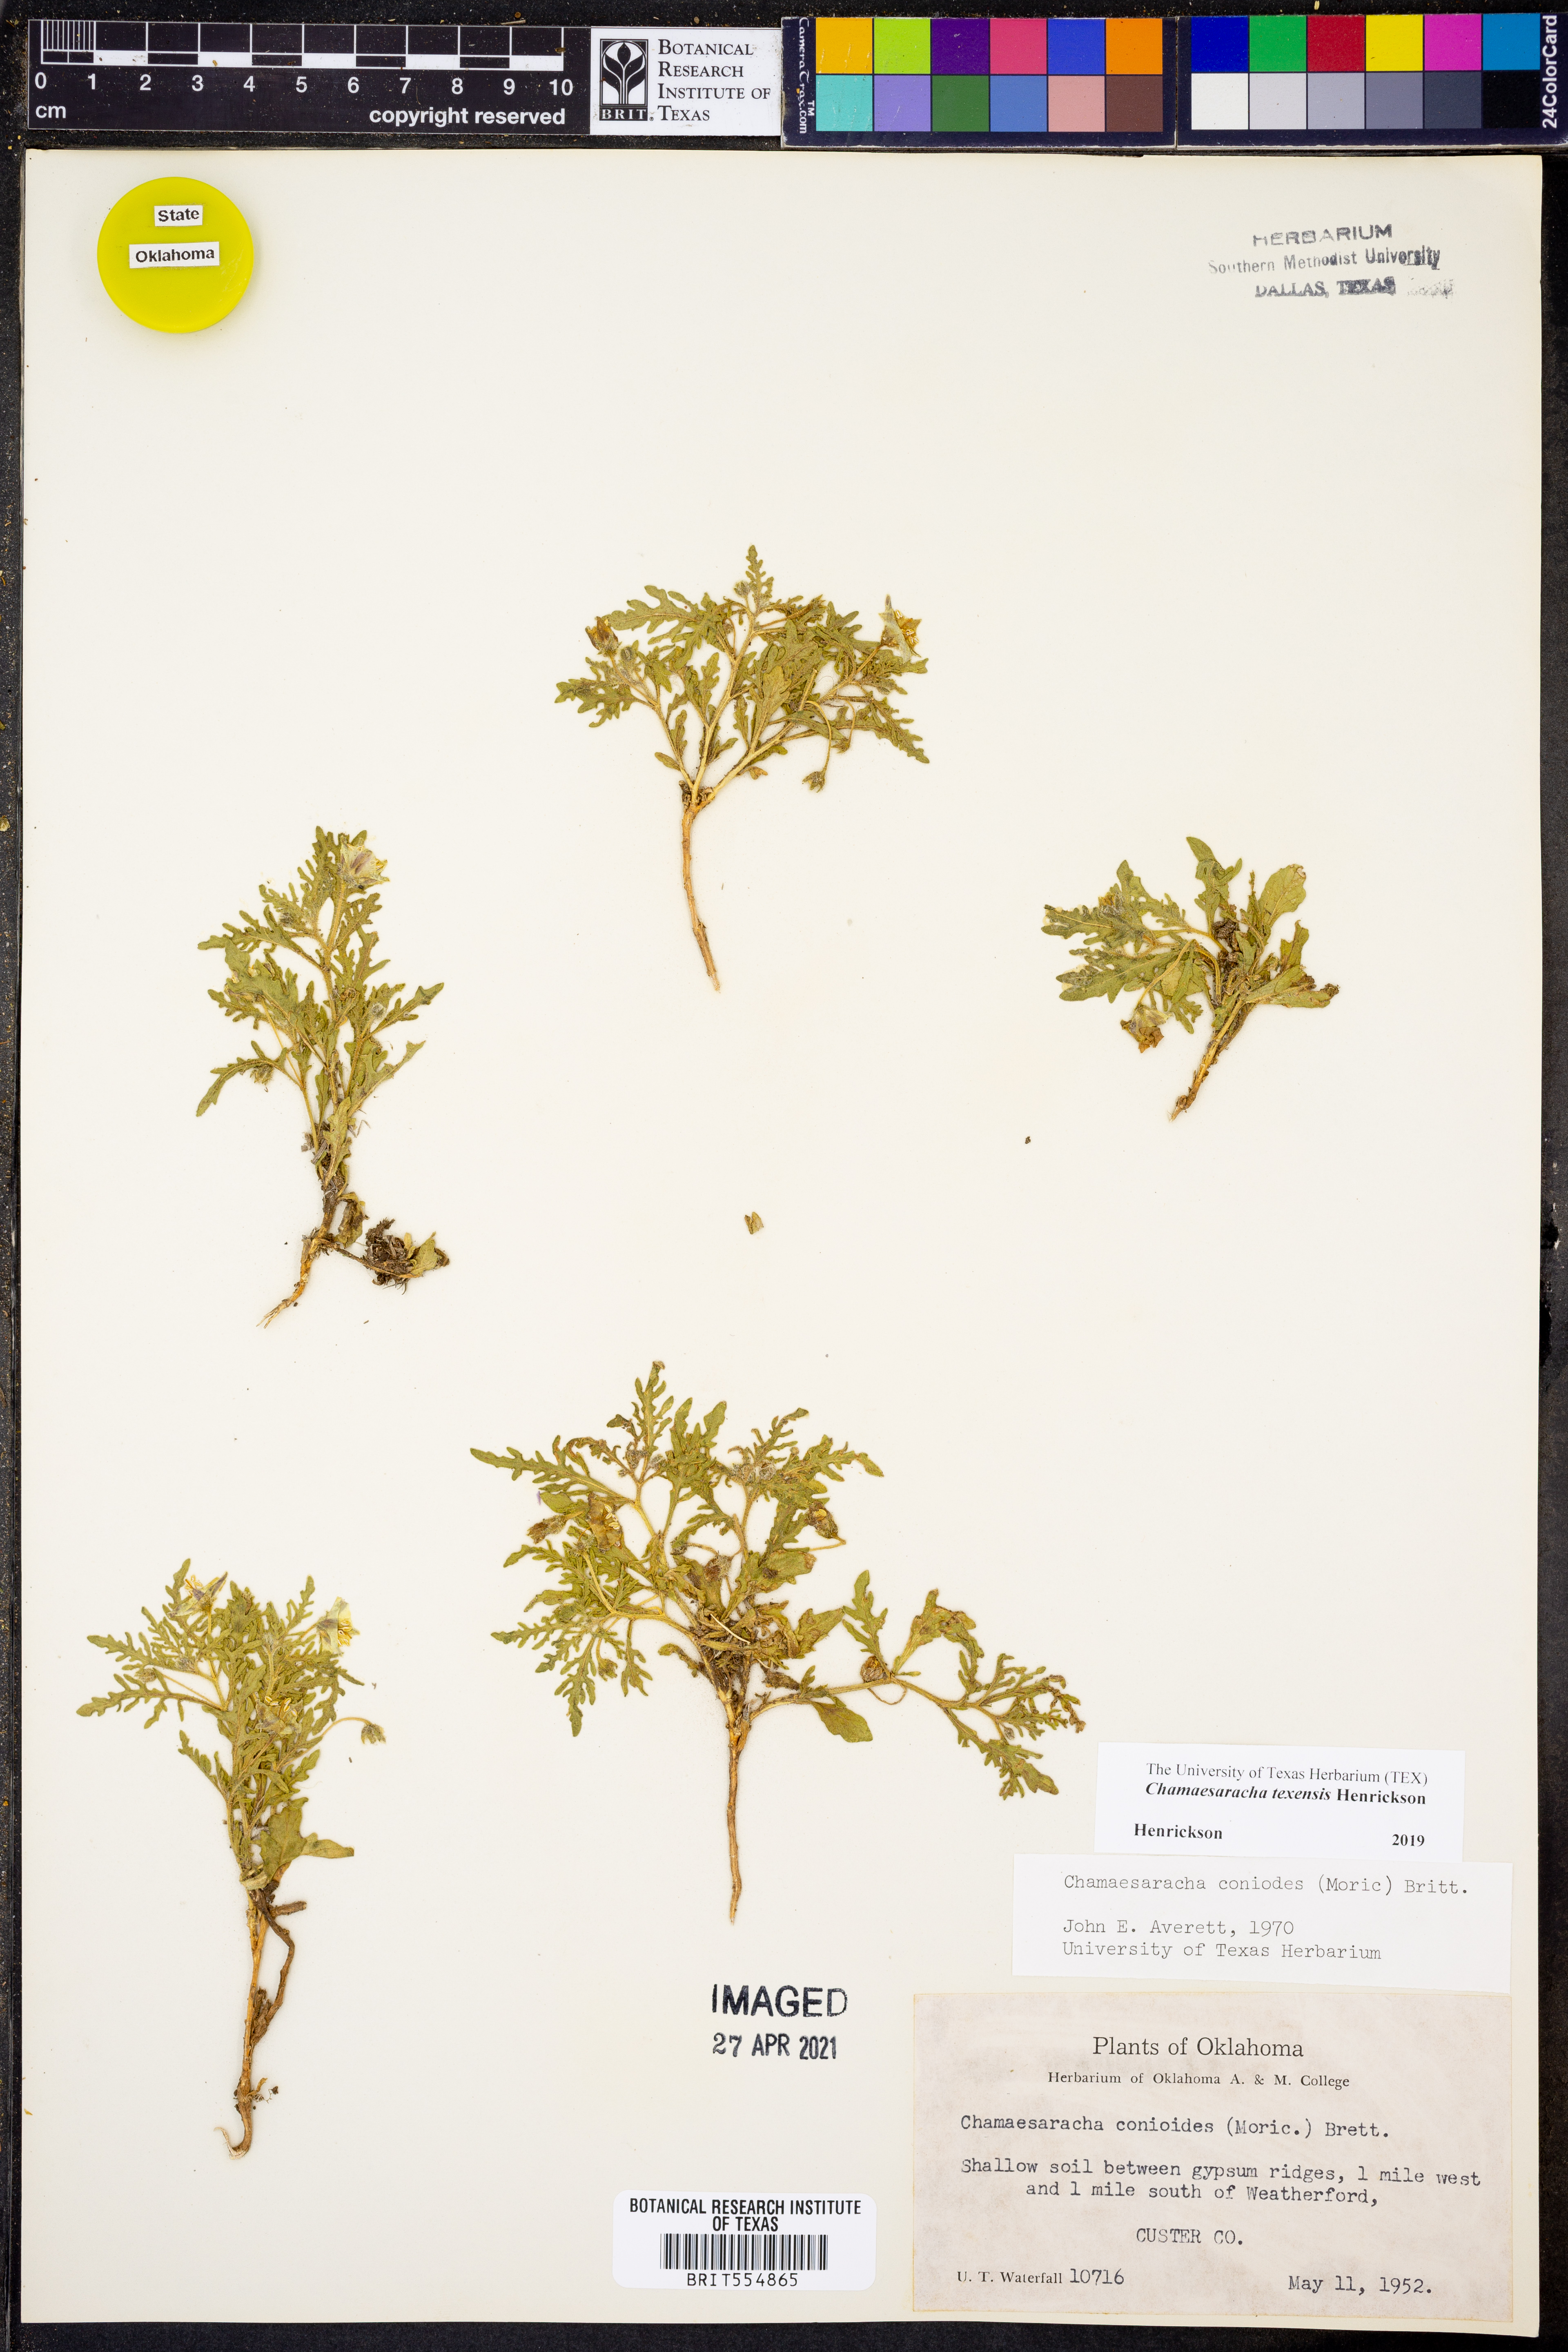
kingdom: Plantae
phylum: Tracheophyta
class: Magnoliopsida
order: Solanales
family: Solanaceae
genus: Chamaesaracha
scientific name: Chamaesaracha texensis
